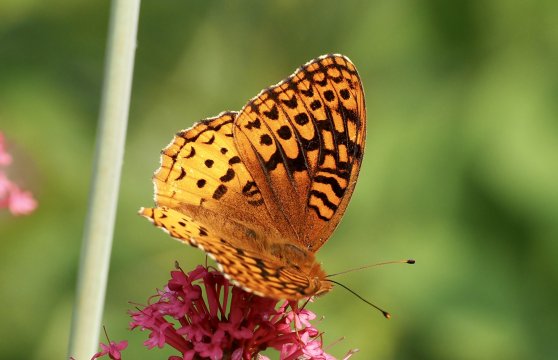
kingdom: Animalia
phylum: Arthropoda
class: Insecta
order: Lepidoptera
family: Nymphalidae
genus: Speyeria
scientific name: Speyeria cybele
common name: Great Spangled Fritillary
